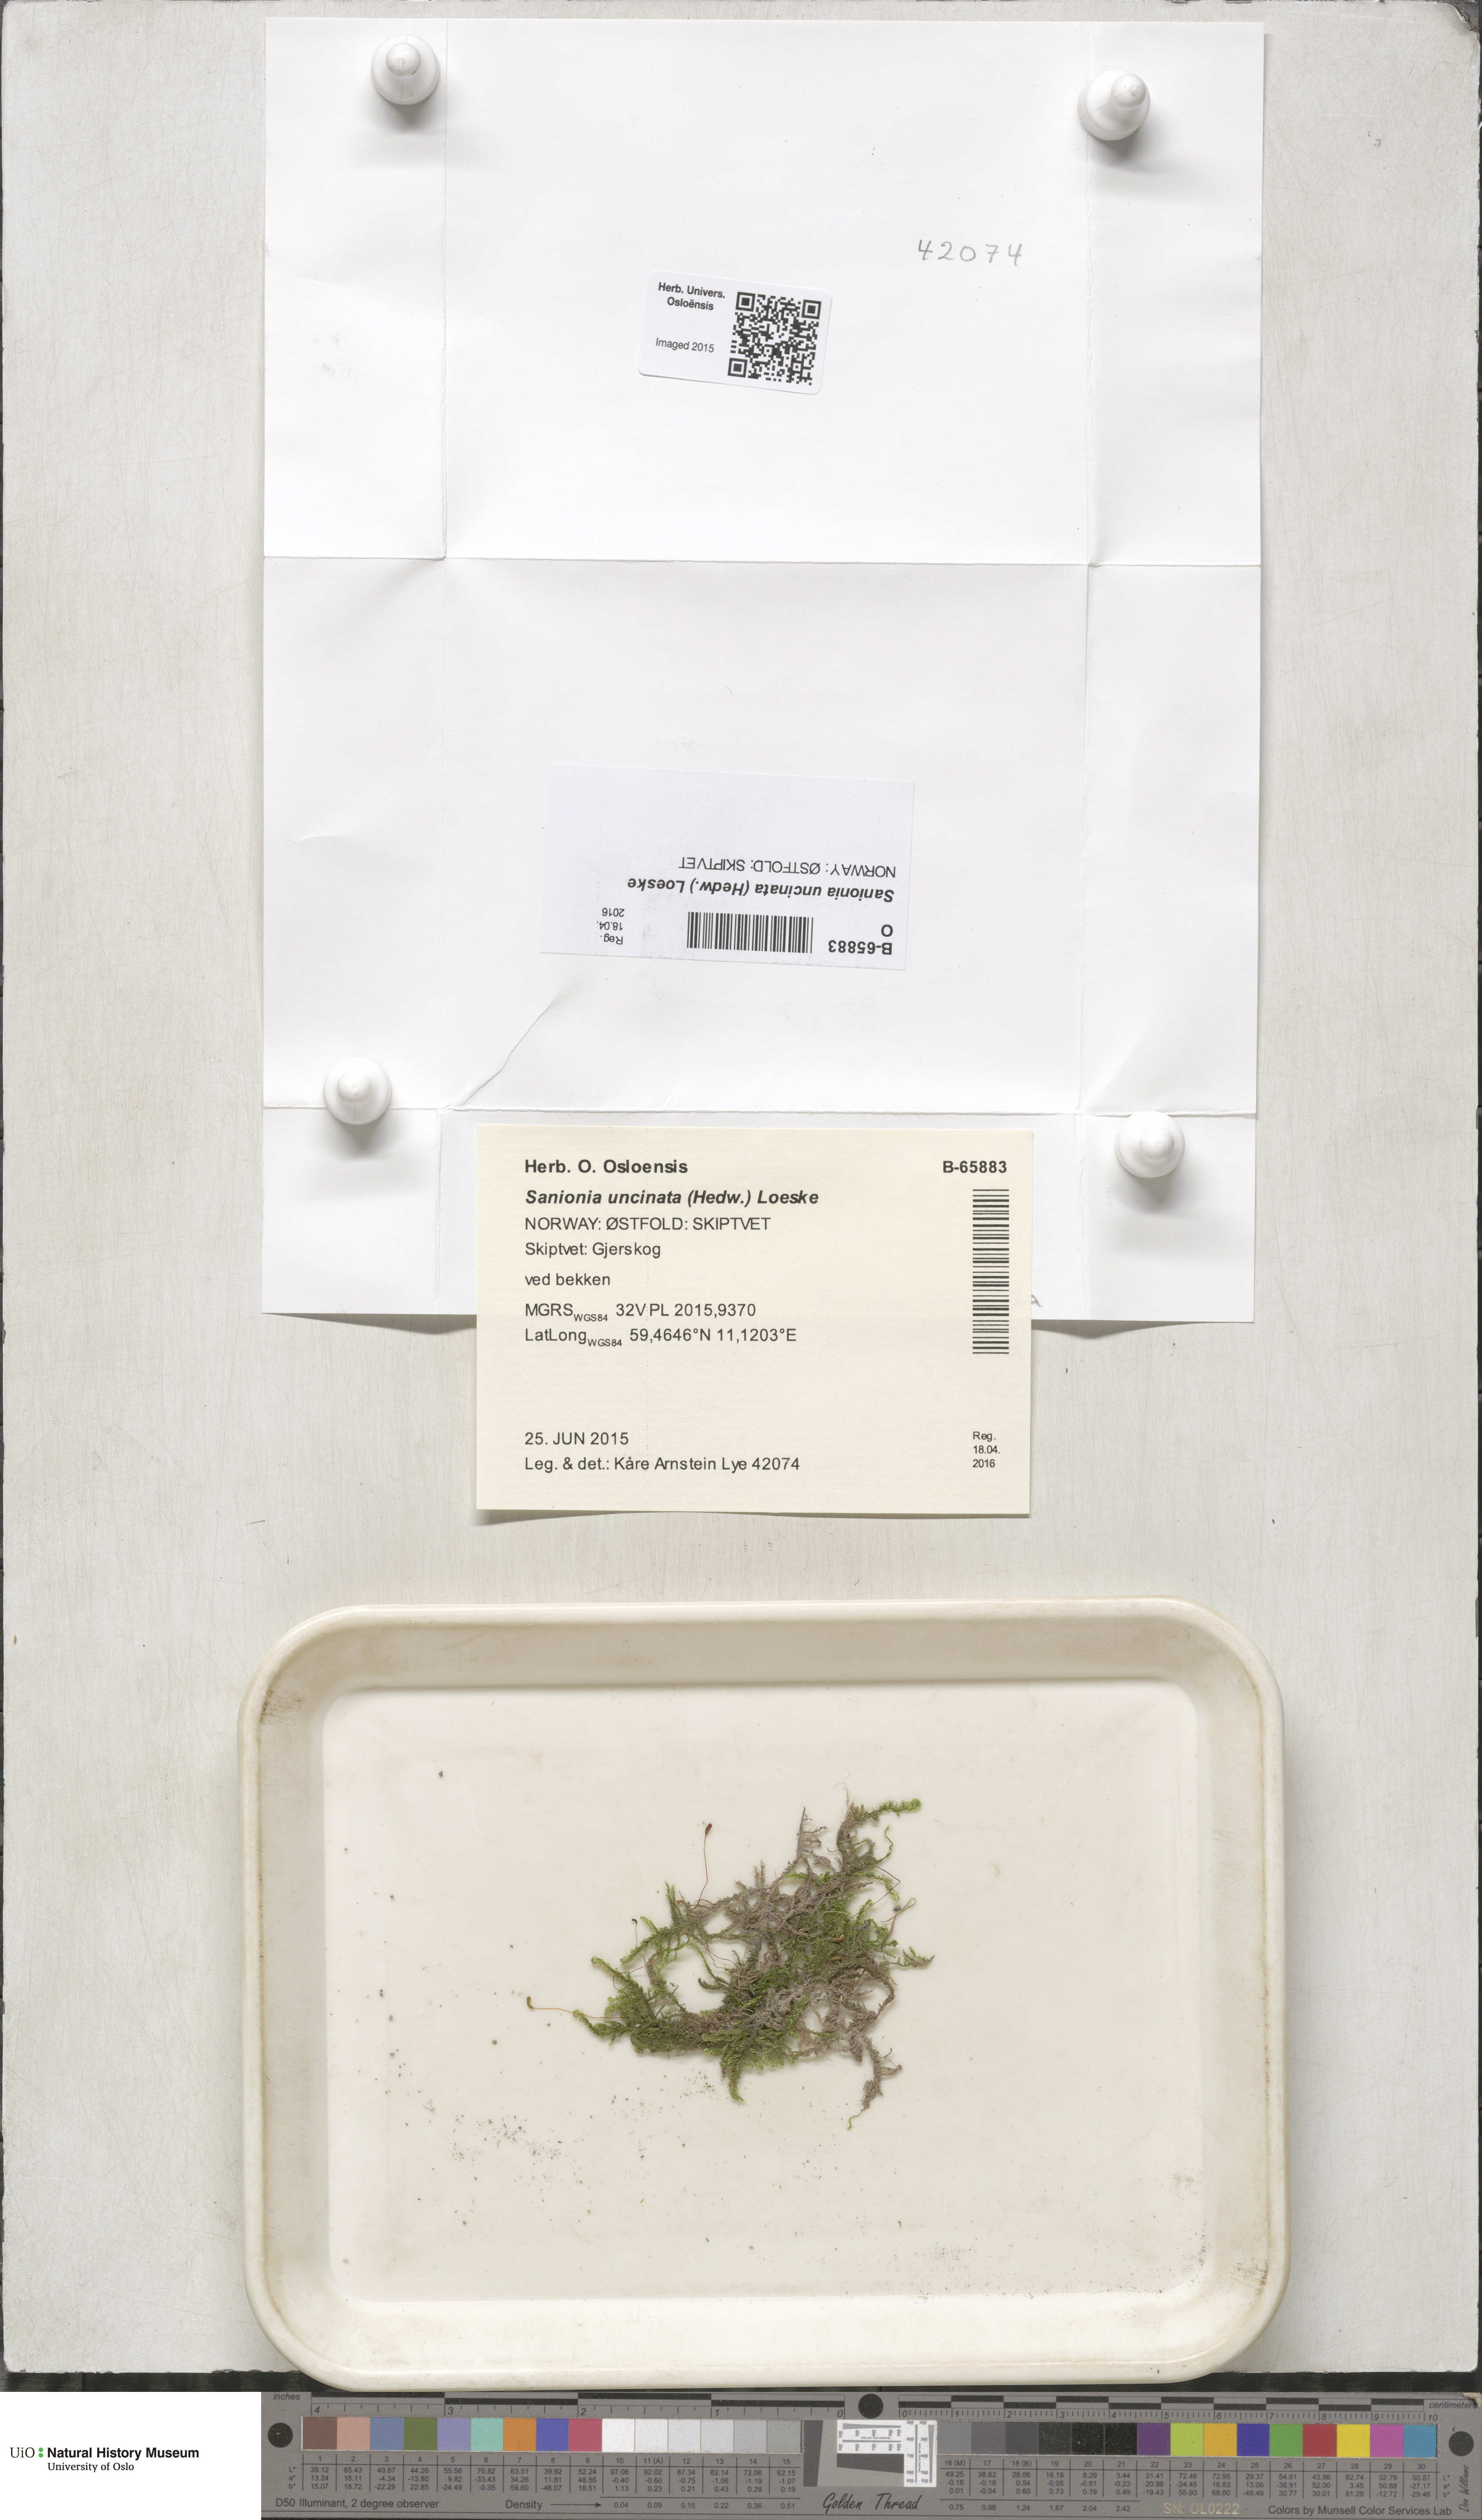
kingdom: Plantae
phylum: Bryophyta
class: Bryopsida
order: Hypnales
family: Scorpidiaceae
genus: Sanionia
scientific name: Sanionia uncinata
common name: Sickle moss
